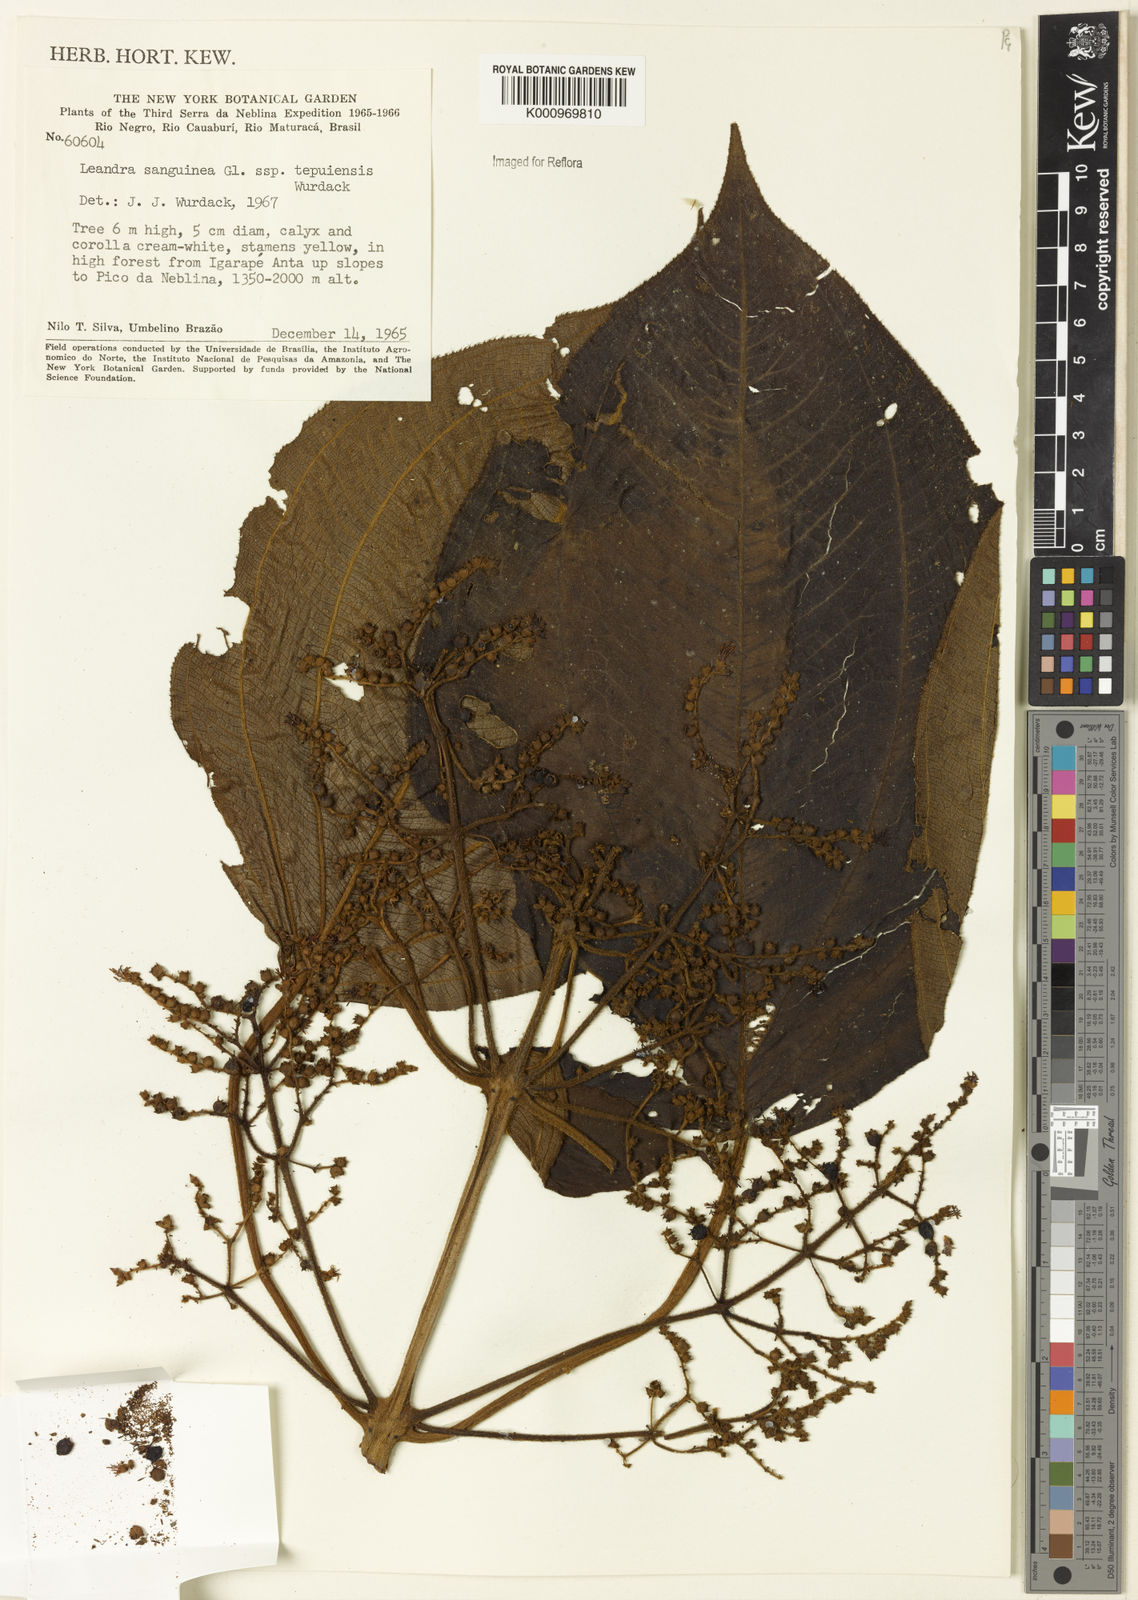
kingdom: Plantae
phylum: Tracheophyta
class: Magnoliopsida
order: Myrtales
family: Melastomataceae
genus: Miconia
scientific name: Miconia leasanguinea
